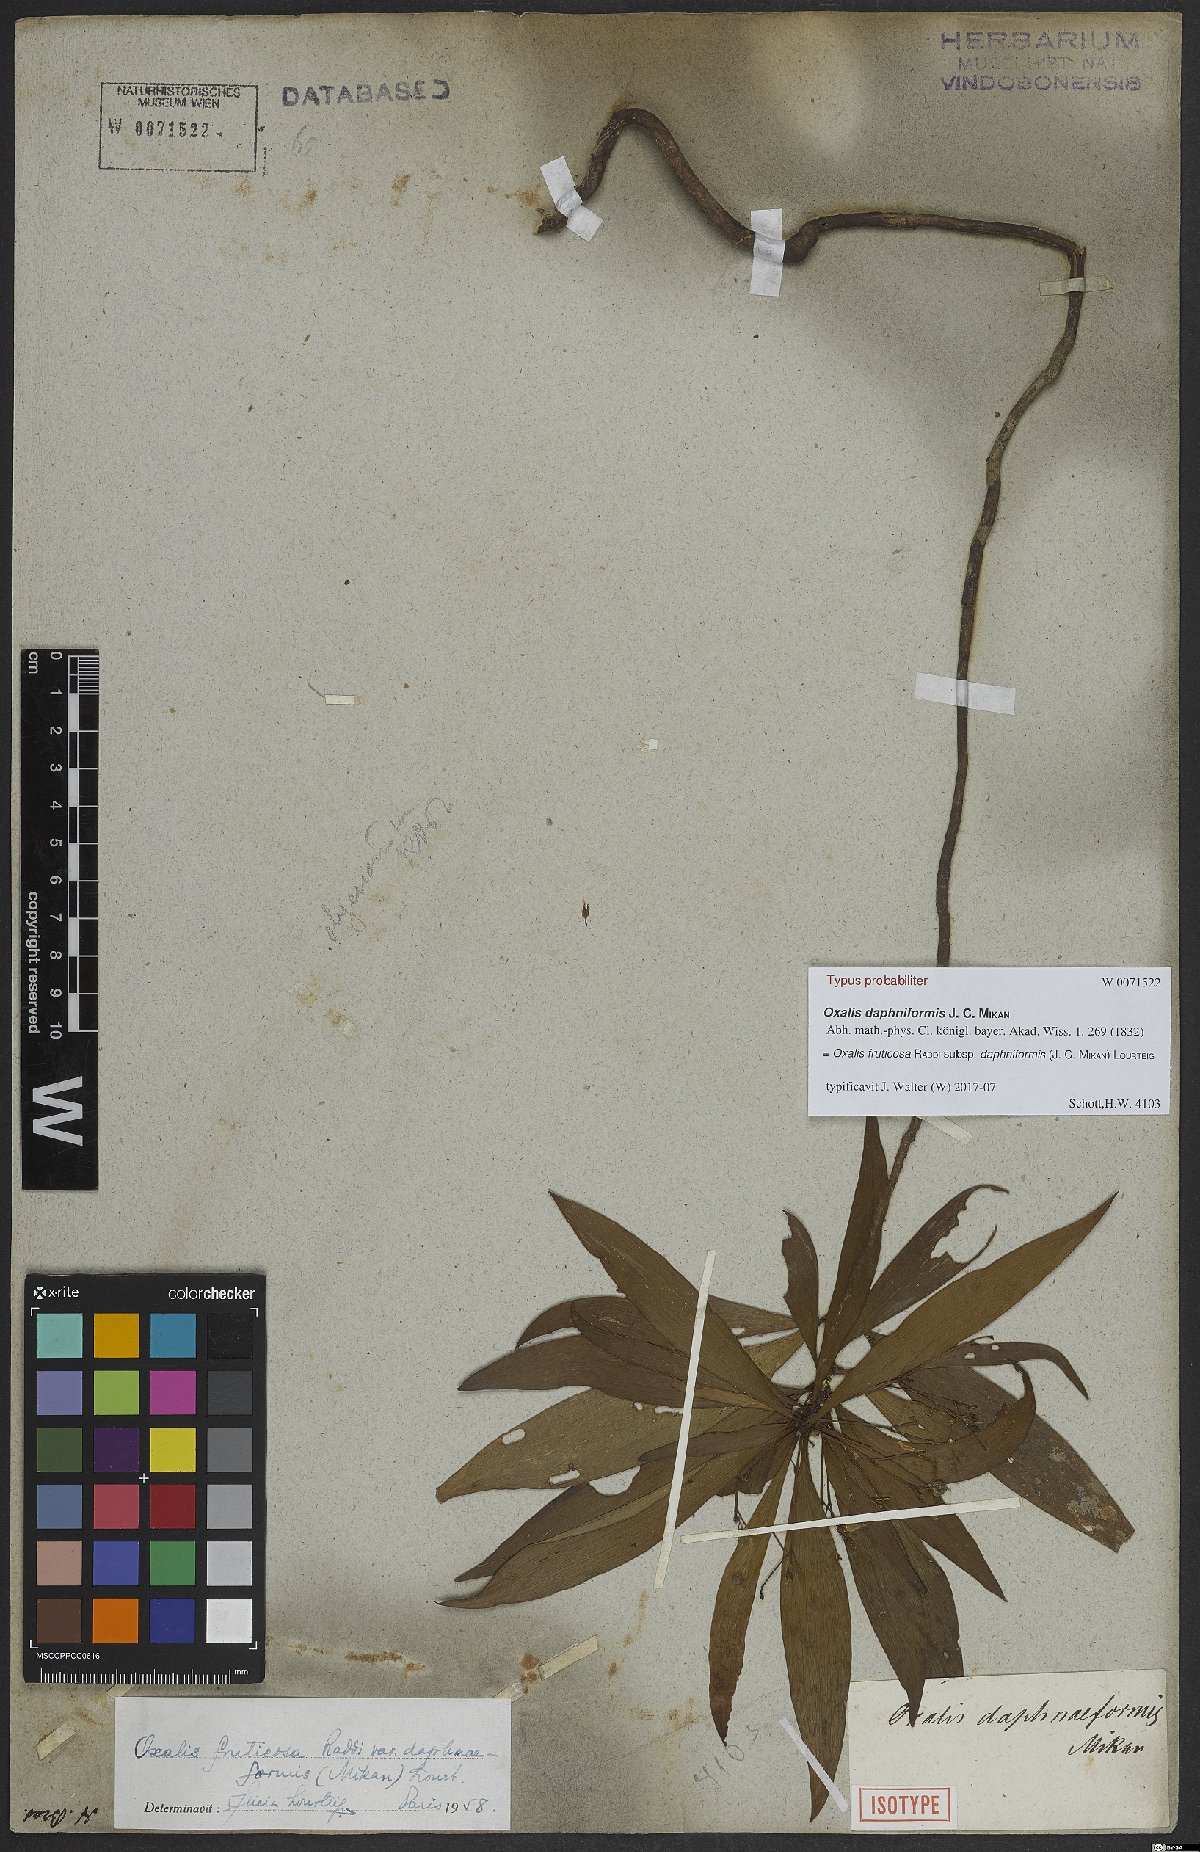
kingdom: Plantae
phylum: Tracheophyta
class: Magnoliopsida
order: Oxalidales
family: Oxalidaceae
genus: Oxalis
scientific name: Oxalis fruticosa
